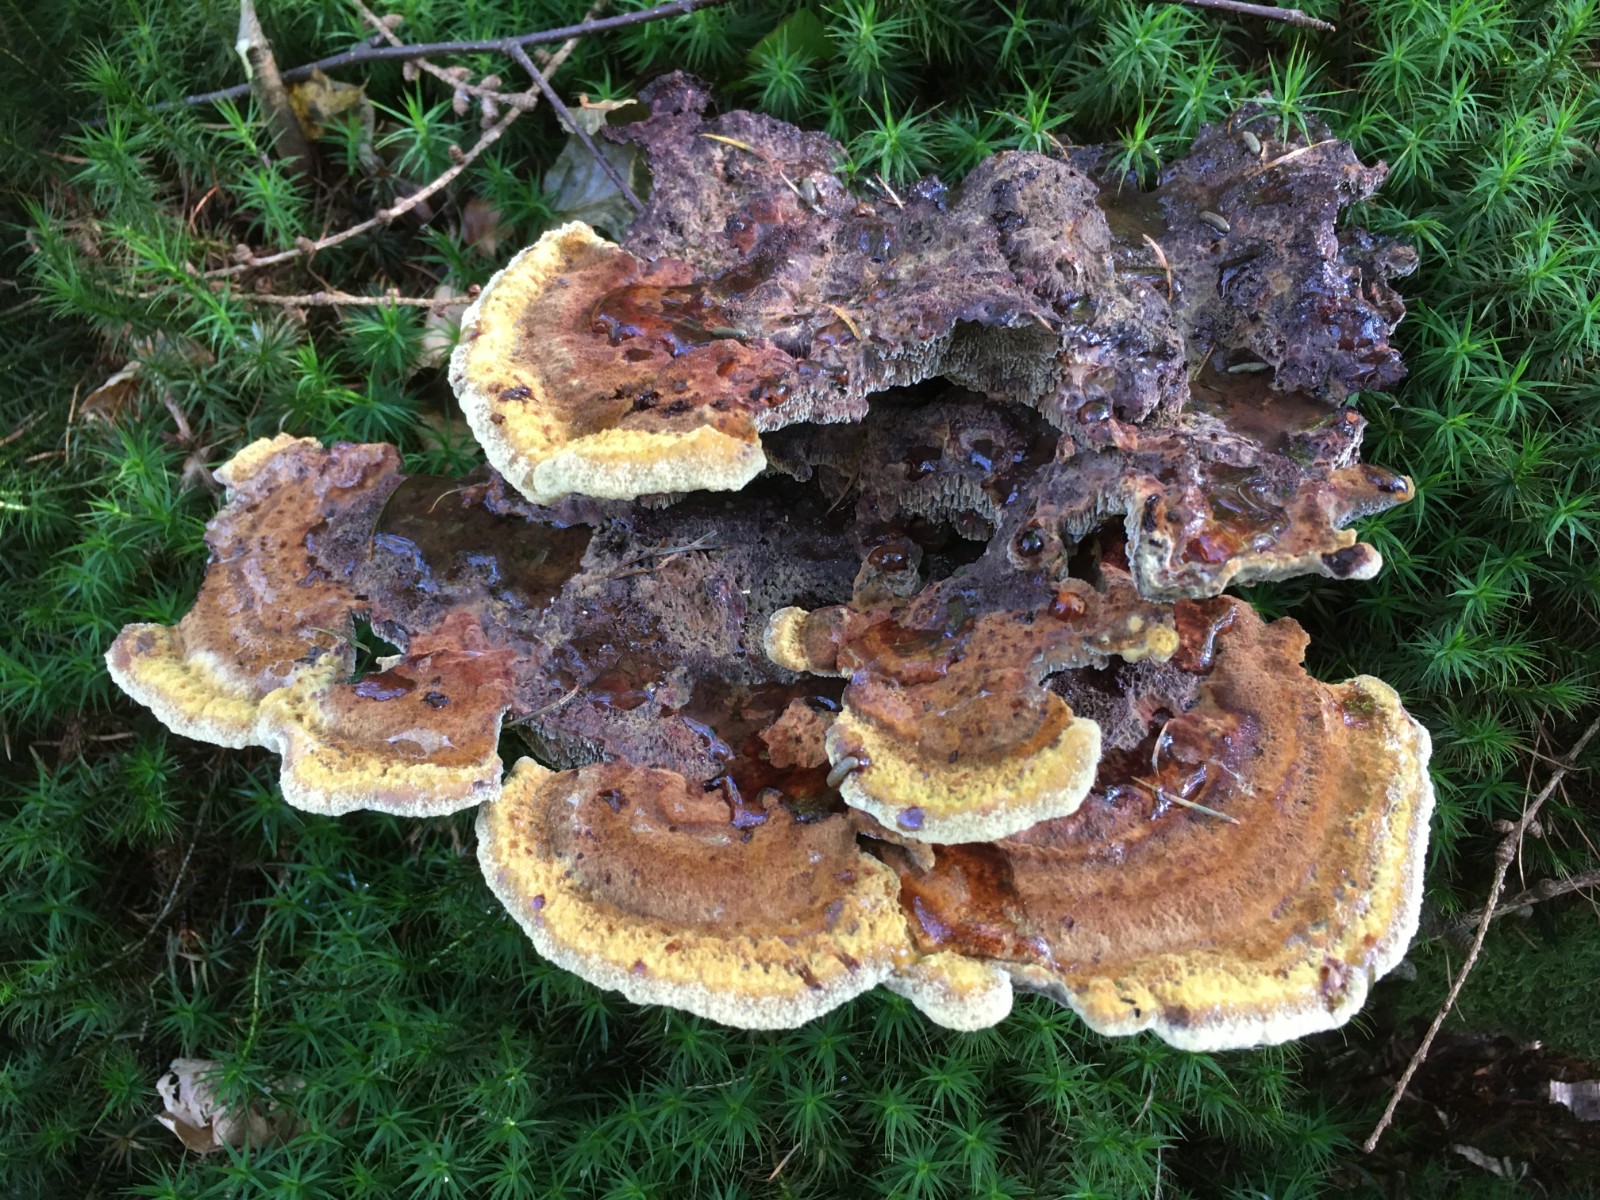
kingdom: Fungi
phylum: Basidiomycota
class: Agaricomycetes
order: Polyporales
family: Laetiporaceae
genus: Phaeolus
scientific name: Phaeolus schweinitzii
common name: brunporesvamp
